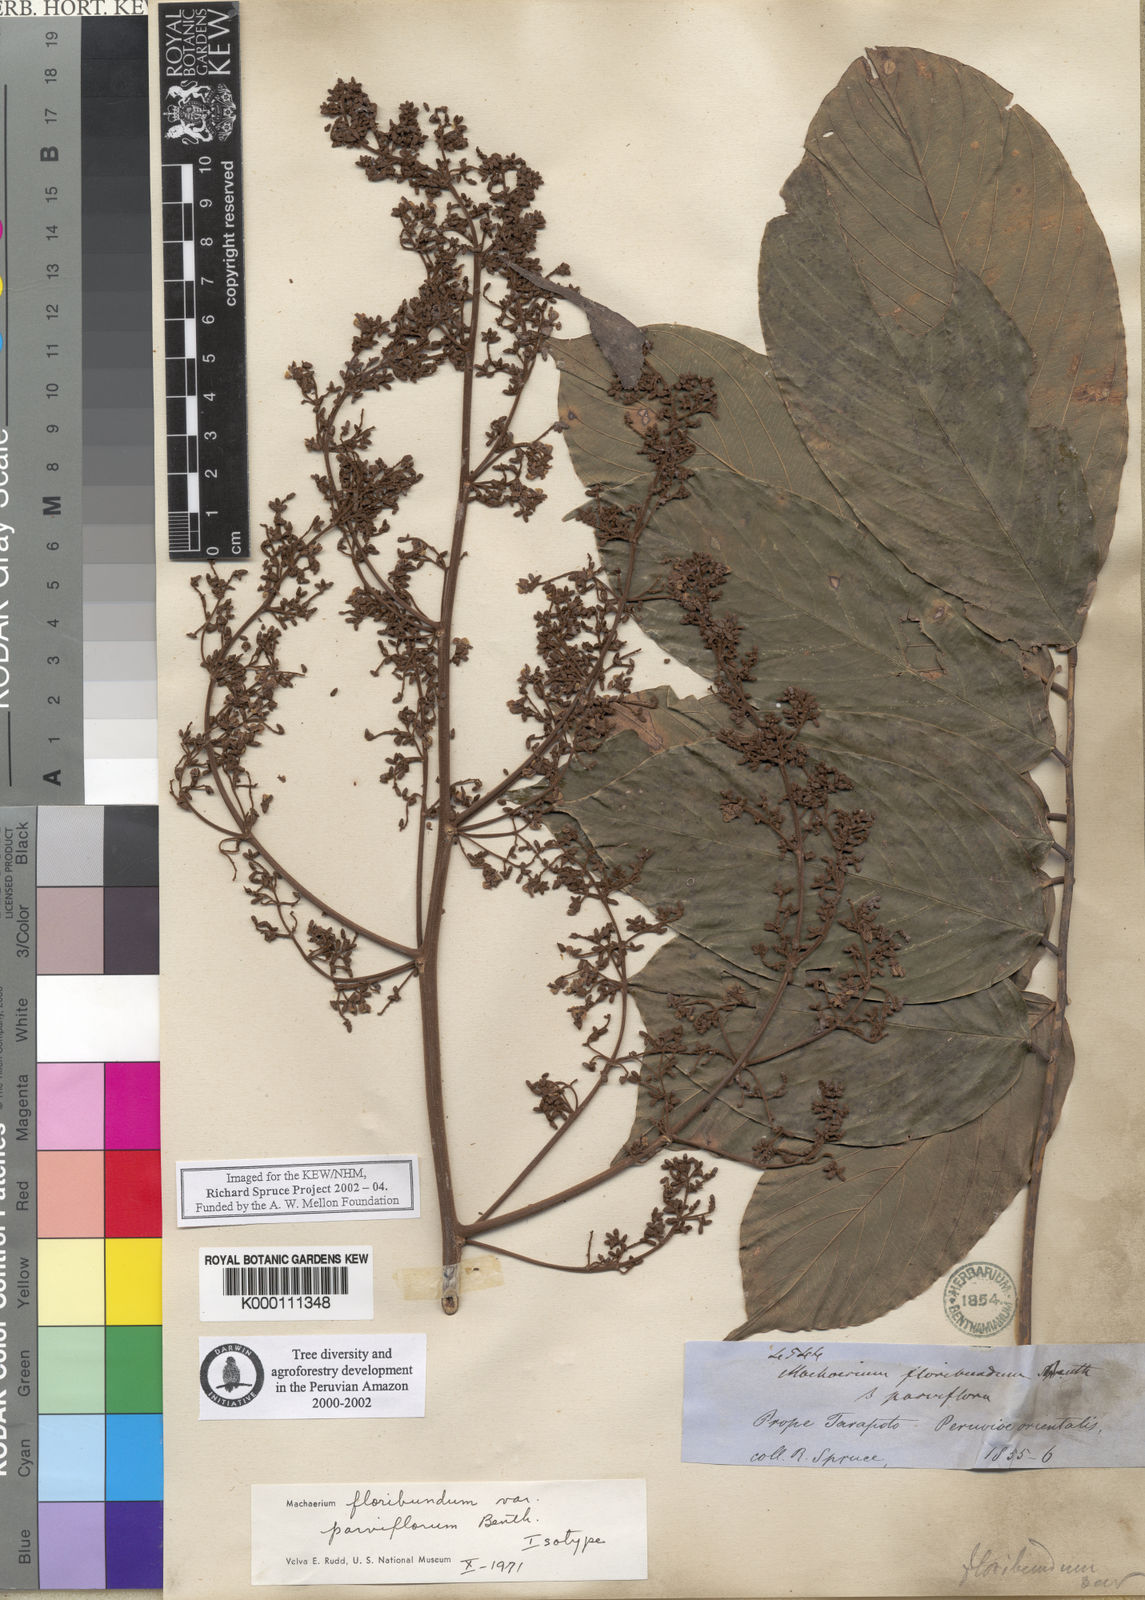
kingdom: Plantae
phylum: Tracheophyta
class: Magnoliopsida
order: Fabales
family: Fabaceae
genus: Machaerium
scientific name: Machaerium floribundum
